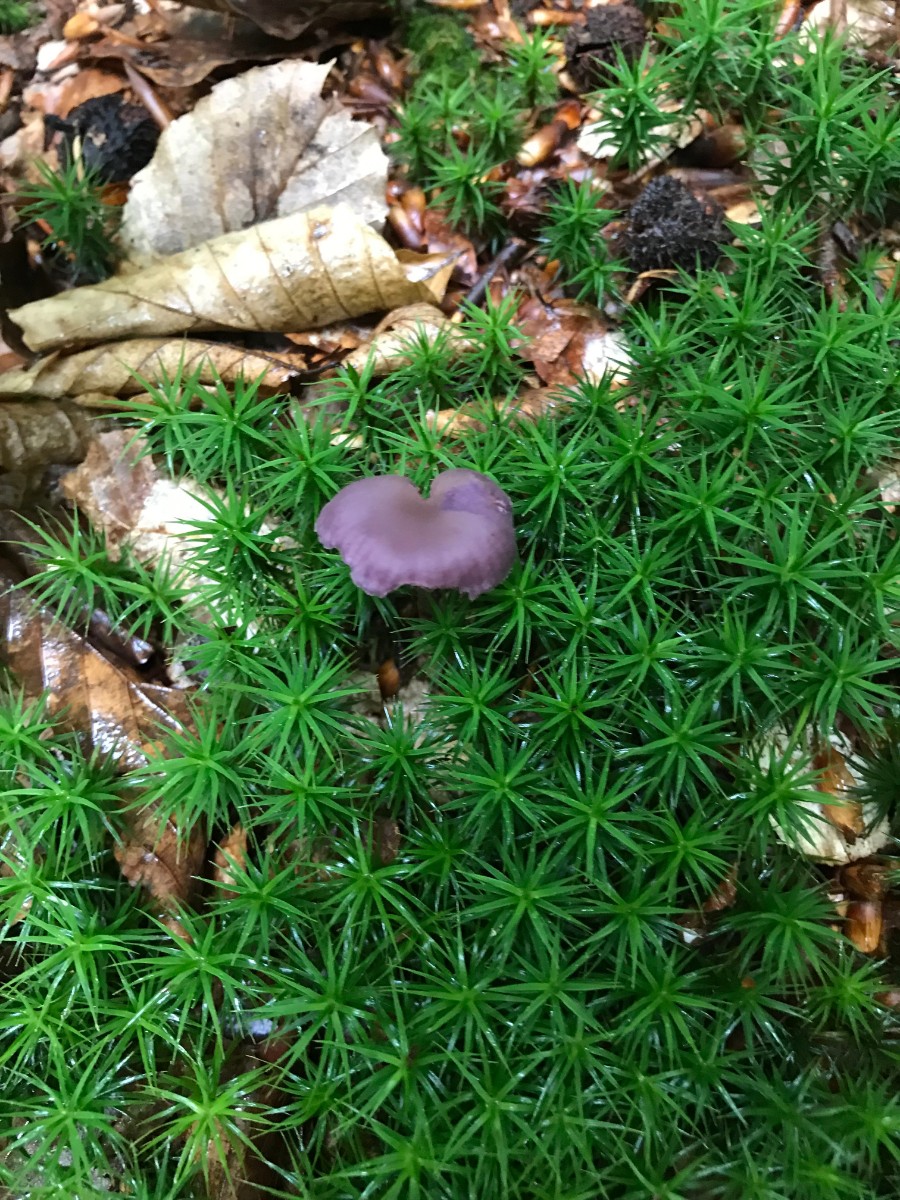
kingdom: Fungi
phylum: Basidiomycota
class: Agaricomycetes
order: Agaricales
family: Hydnangiaceae
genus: Laccaria
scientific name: Laccaria amethystina
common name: violet ametysthat
